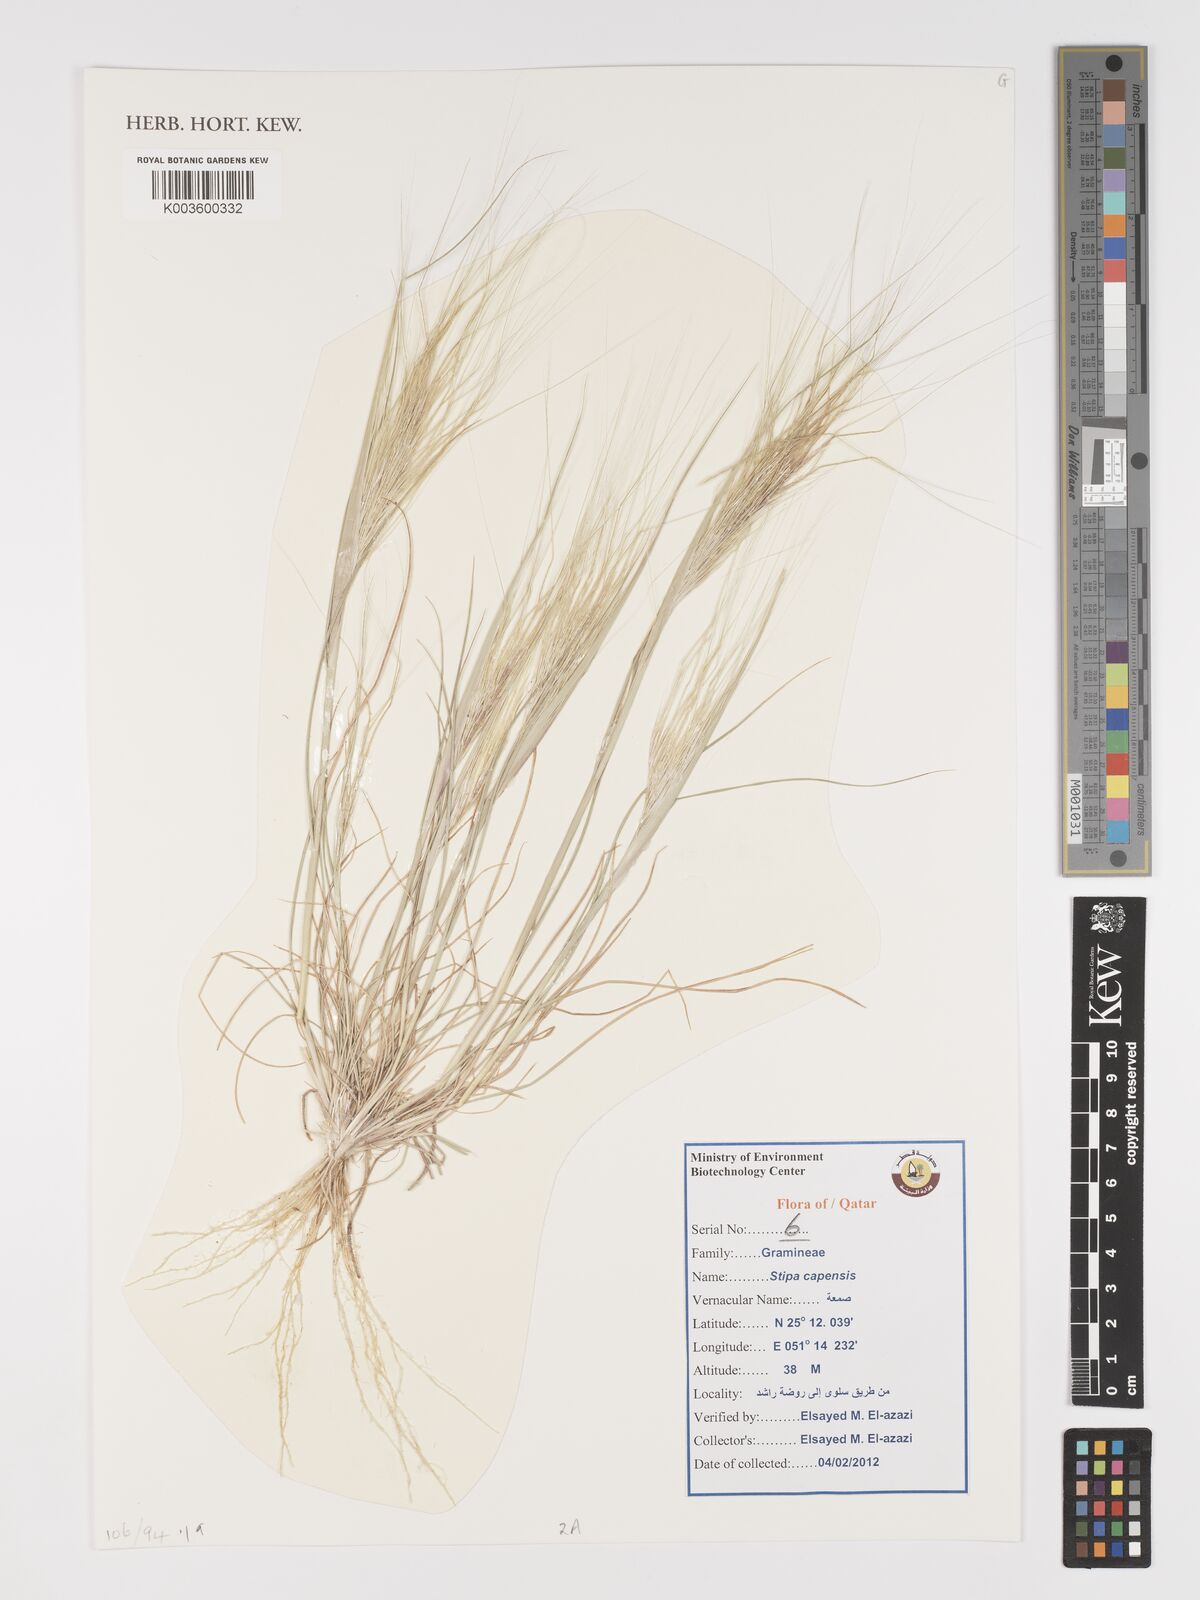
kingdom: Plantae
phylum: Tracheophyta
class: Liliopsida
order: Poales
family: Poaceae
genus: Stipellula
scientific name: Stipellula capensis
